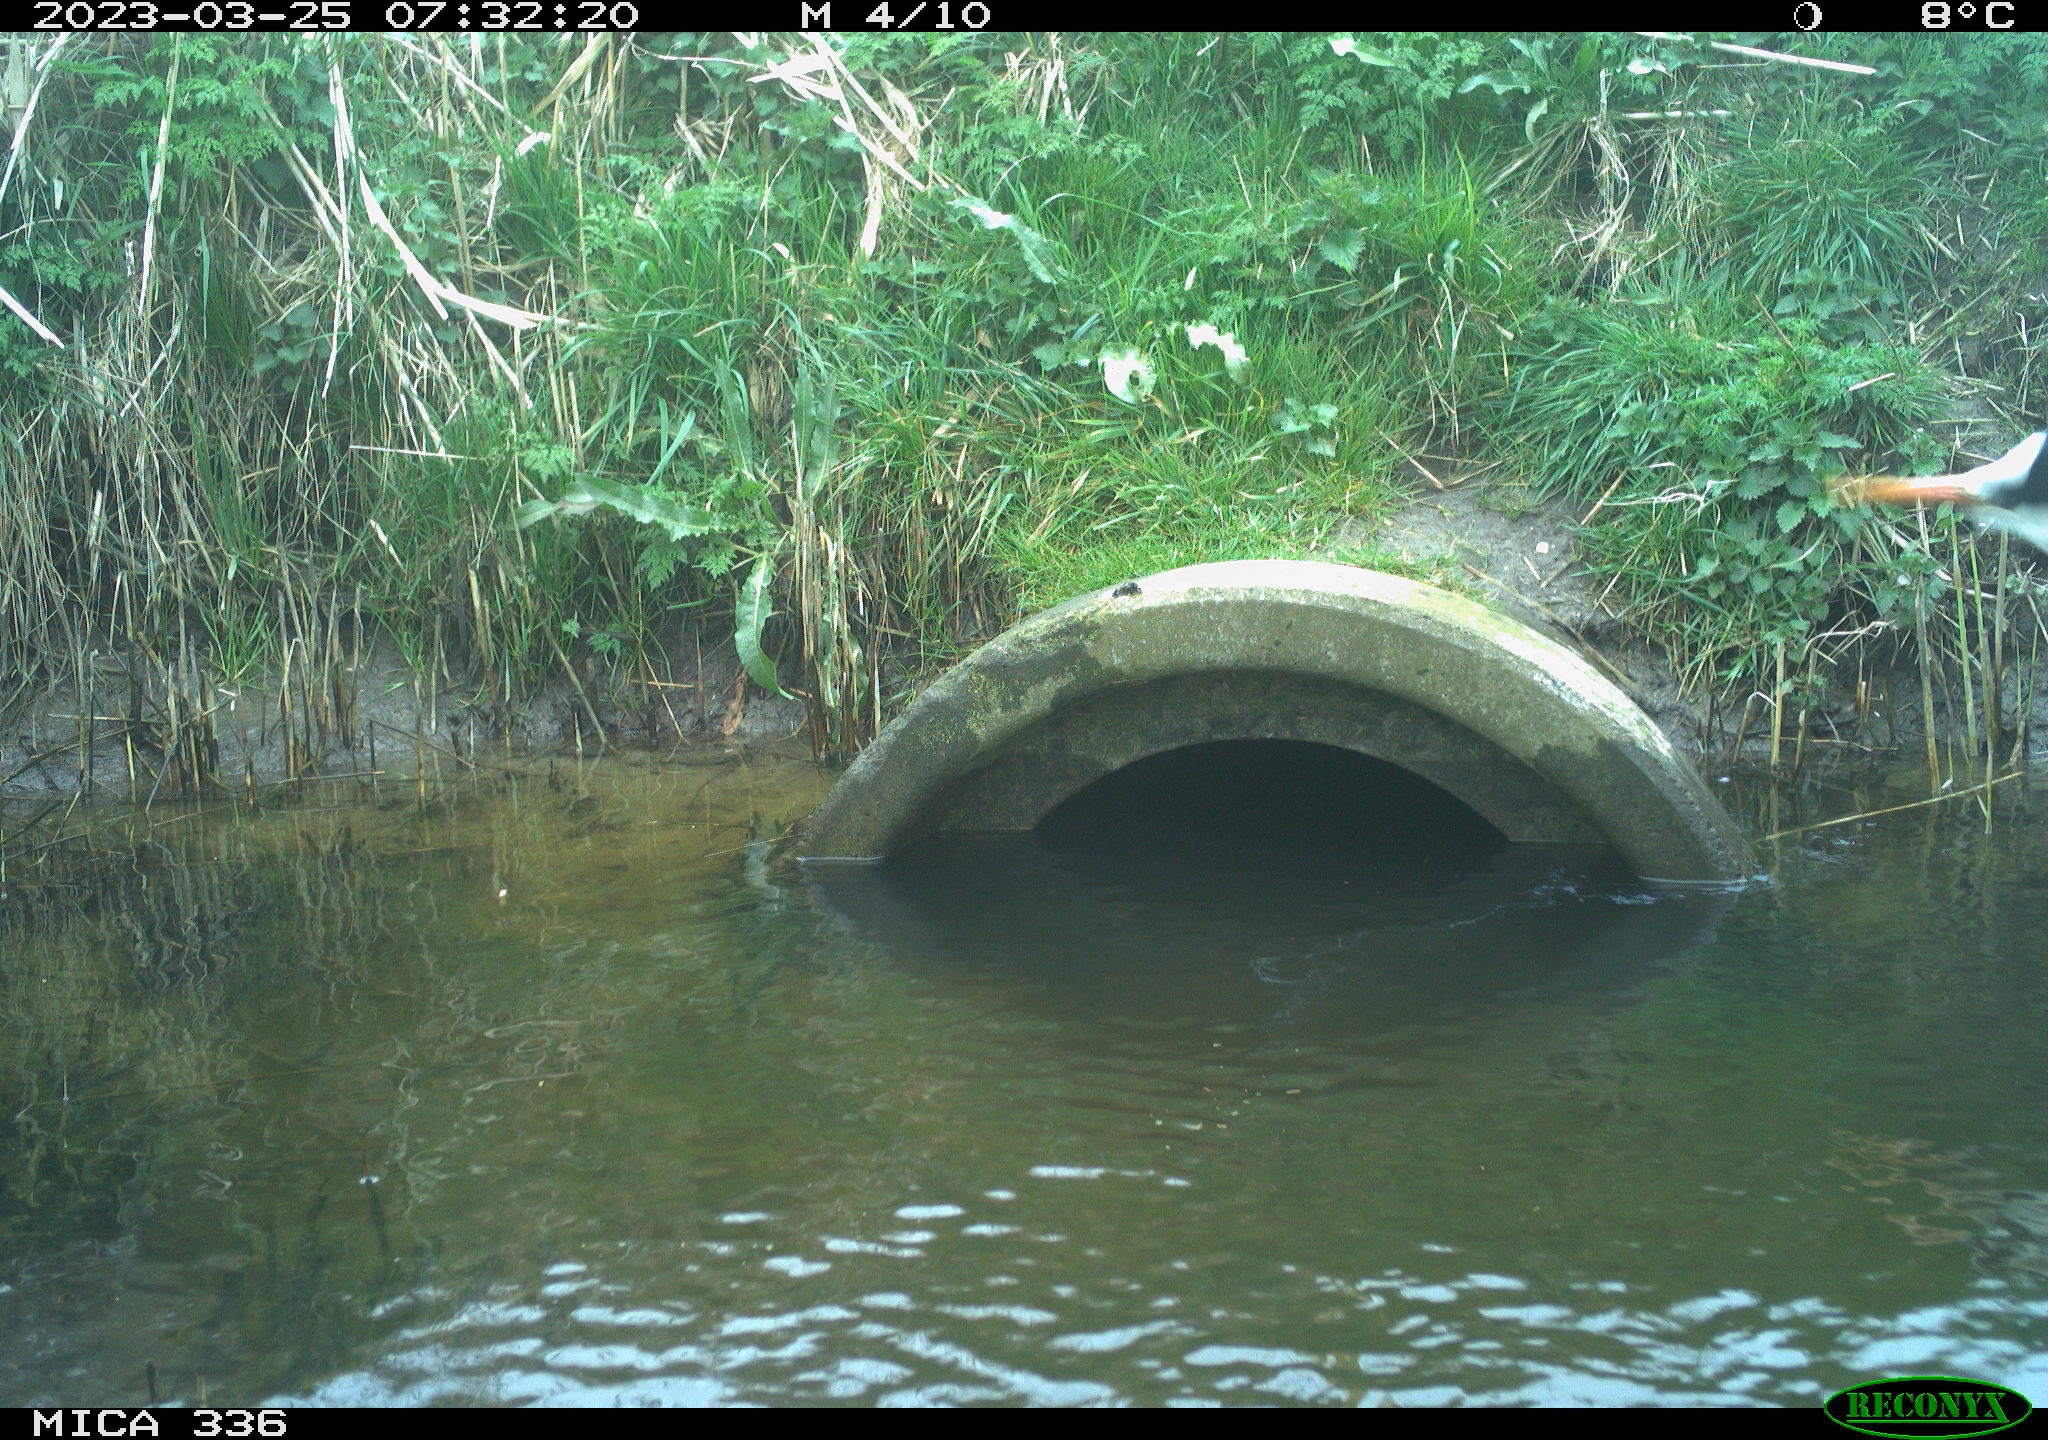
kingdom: Animalia
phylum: Chordata
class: Aves
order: Pelecaniformes
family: Ardeidae
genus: Ardea
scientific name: Ardea cinerea
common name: Grey heron
